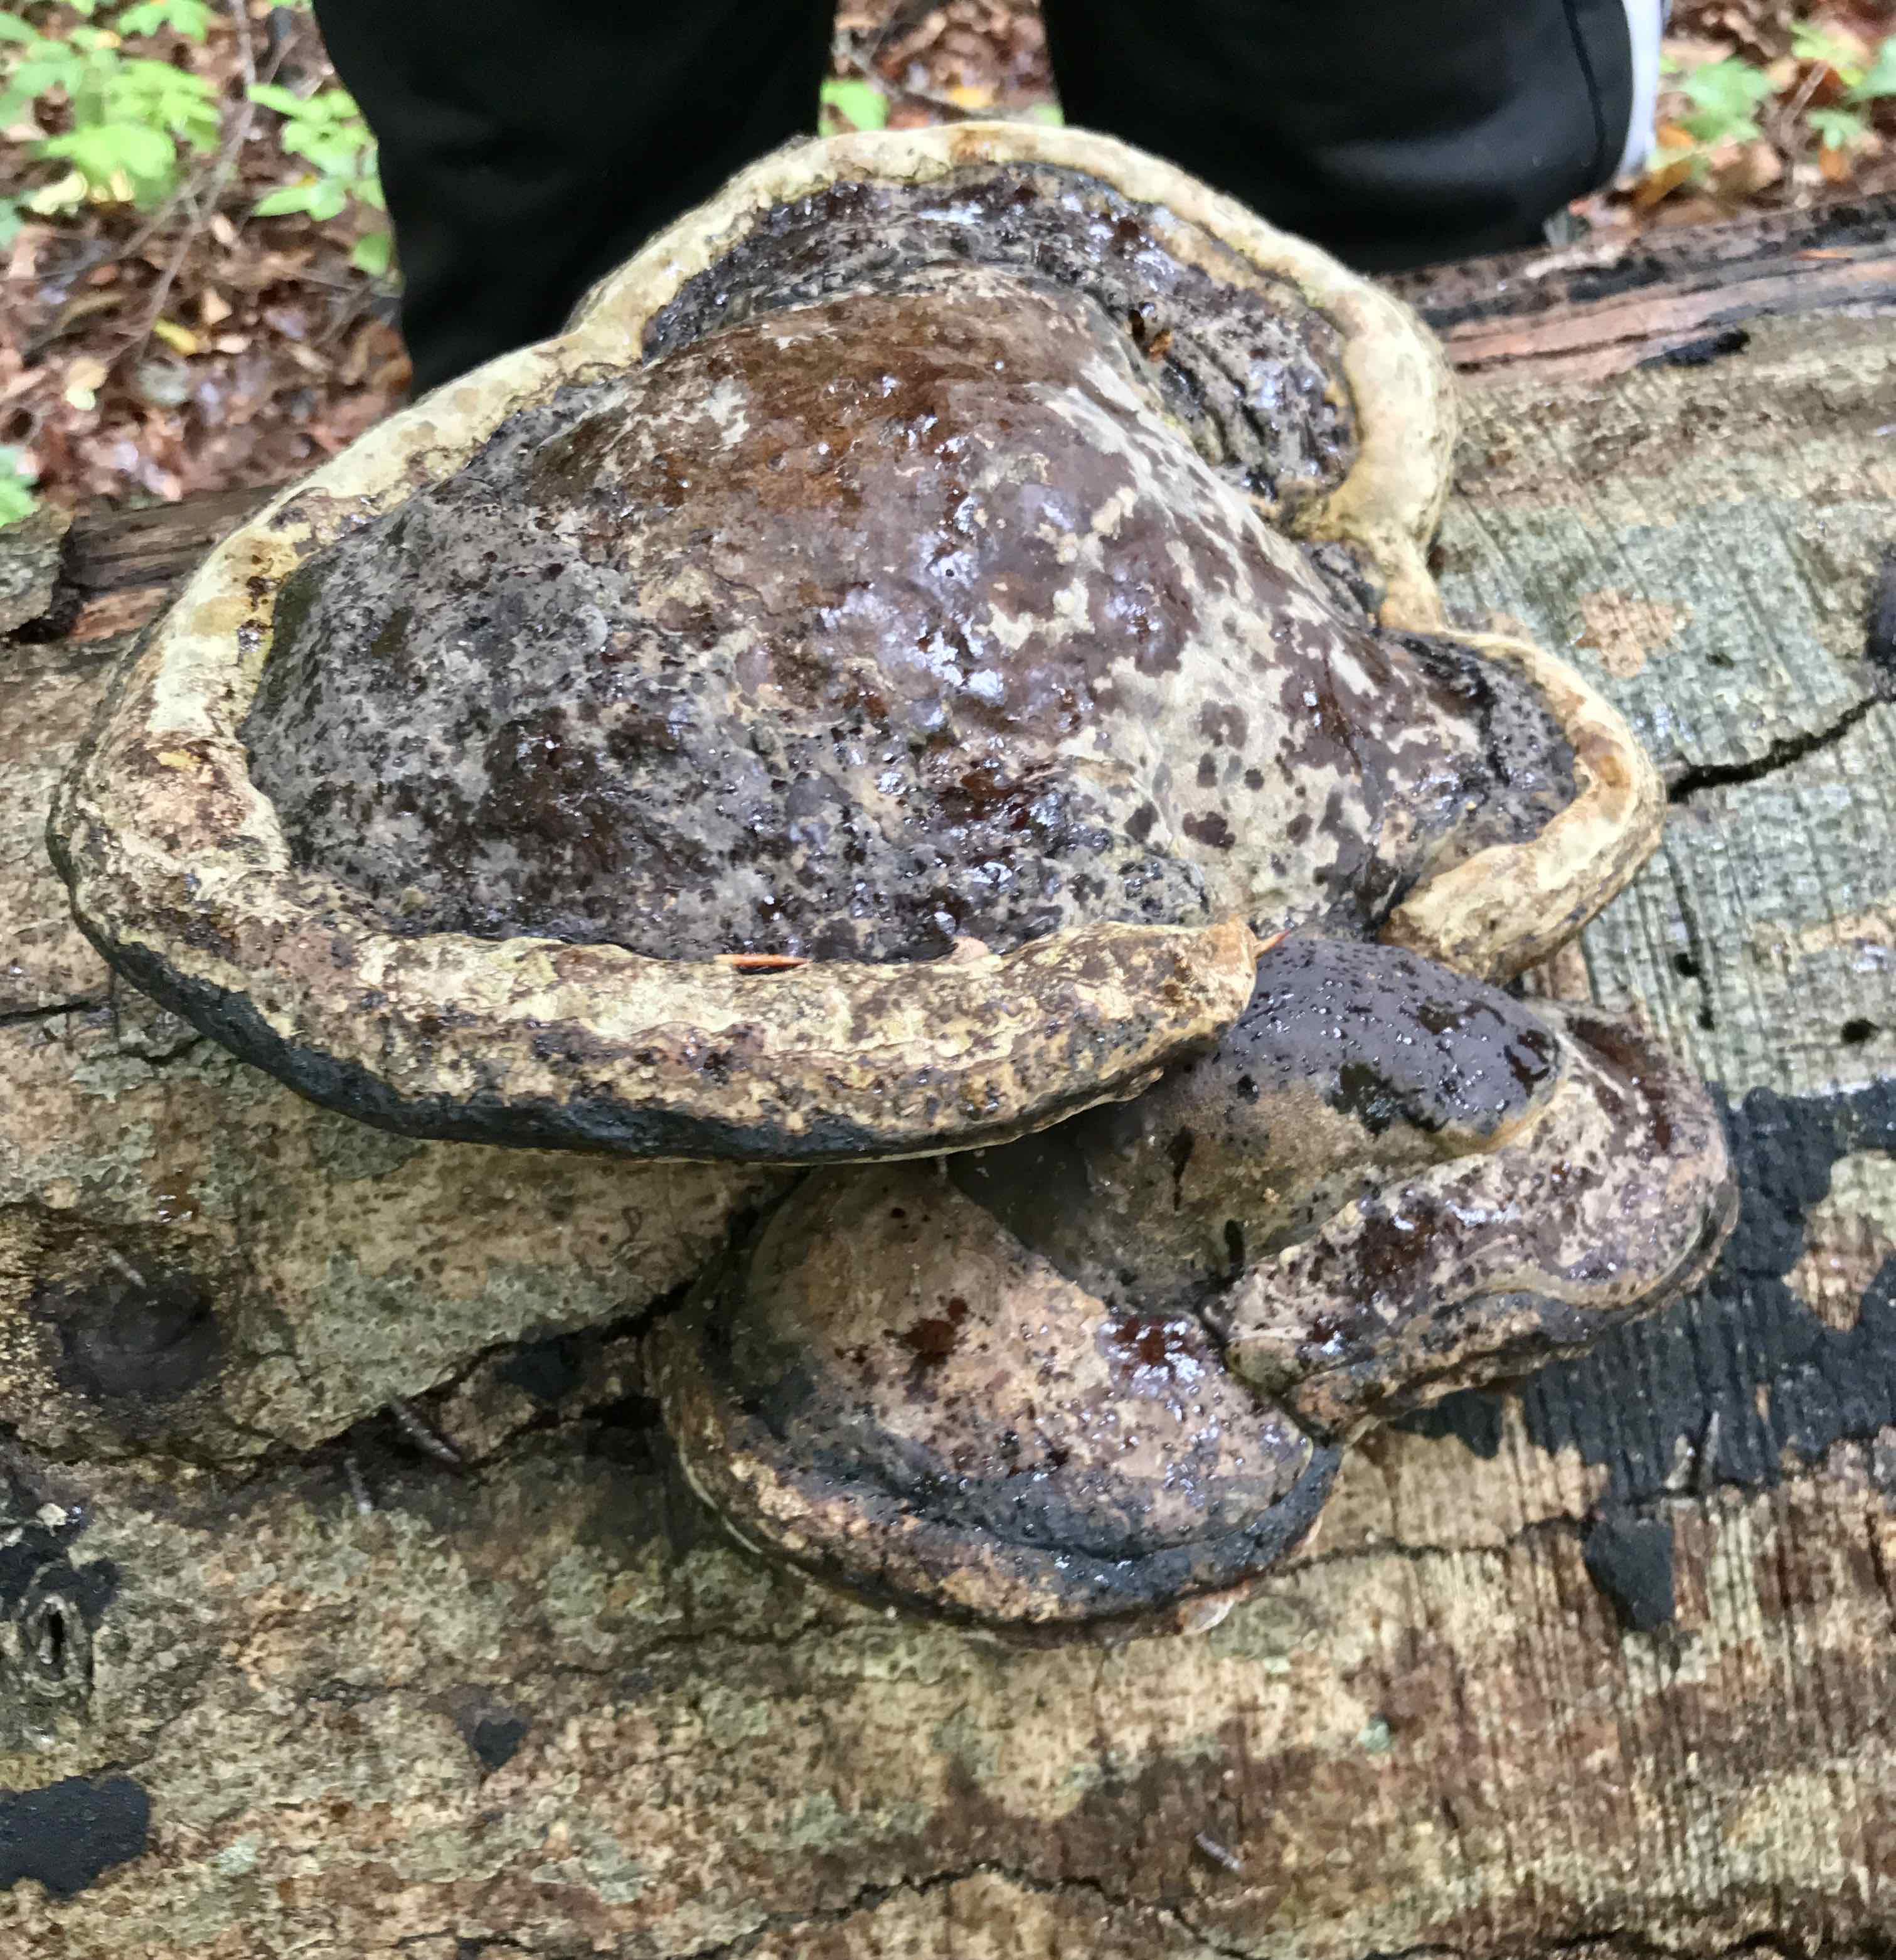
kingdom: Fungi
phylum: Basidiomycota
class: Agaricomycetes
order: Polyporales
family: Polyporaceae
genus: Fomes
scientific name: Fomes fomentarius
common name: tøndersvamp
